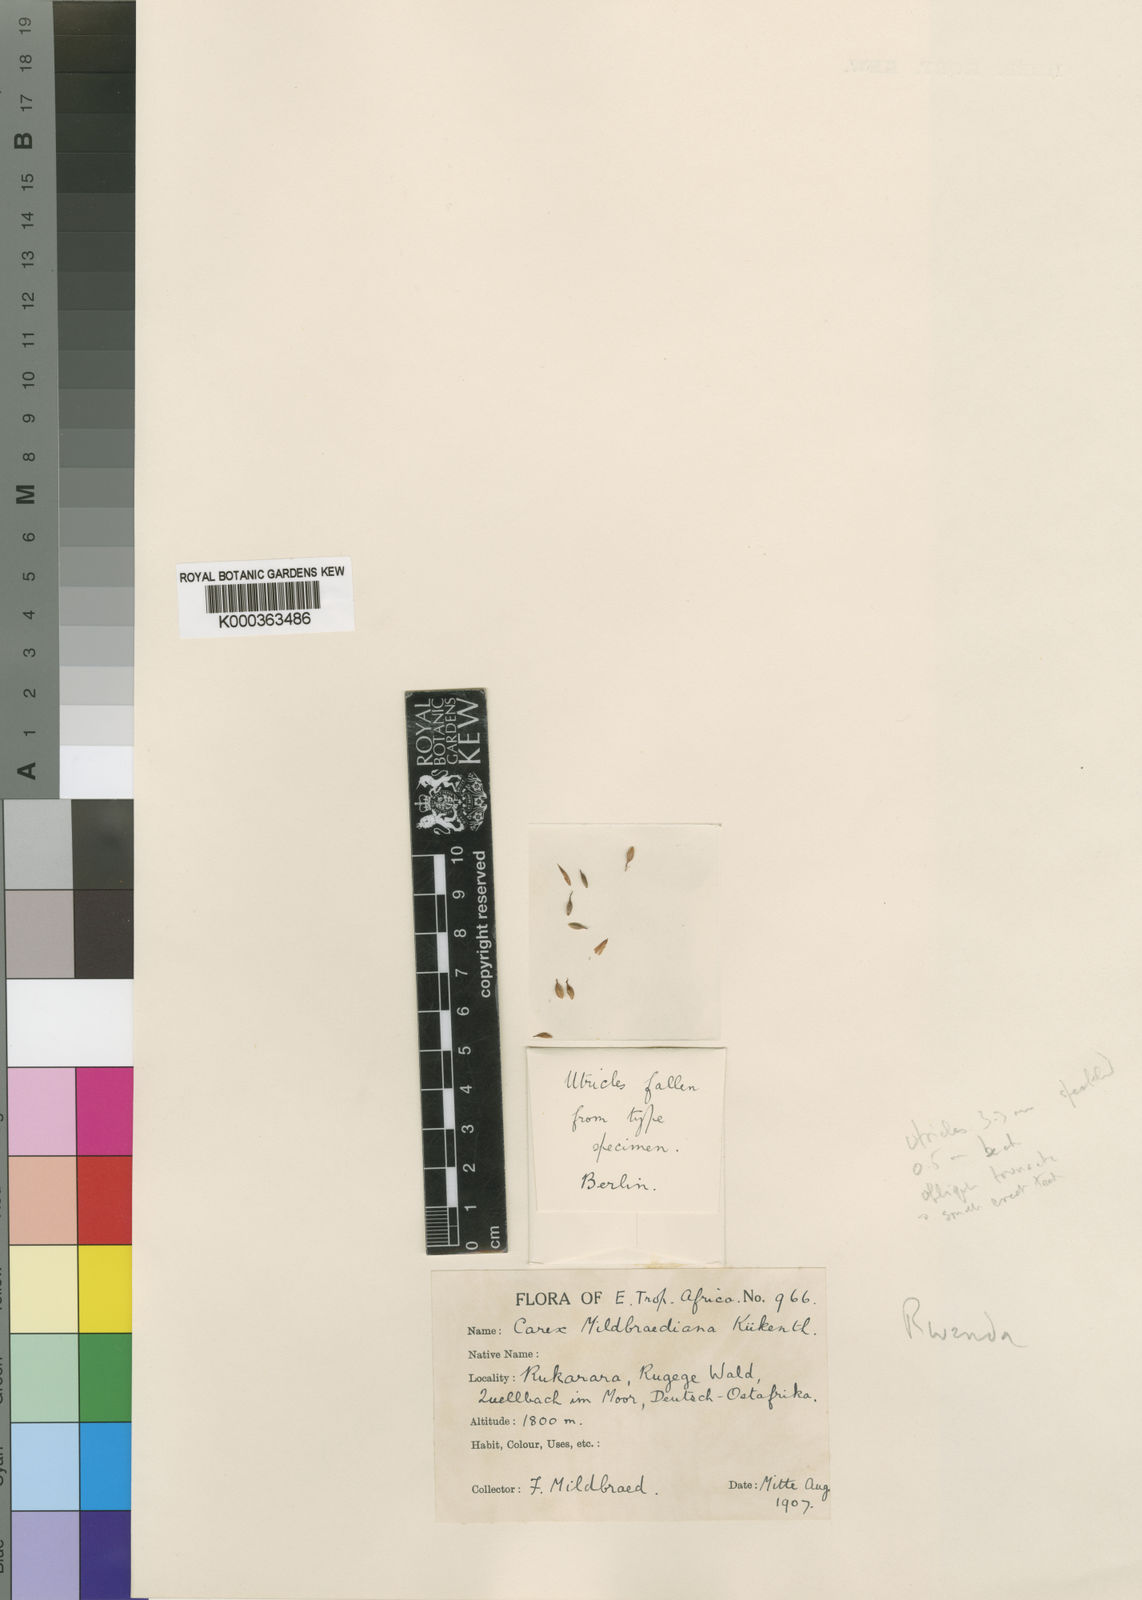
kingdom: Plantae
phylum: Tracheophyta
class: Liliopsida
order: Poales
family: Cyperaceae
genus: Carex
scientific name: Carex
